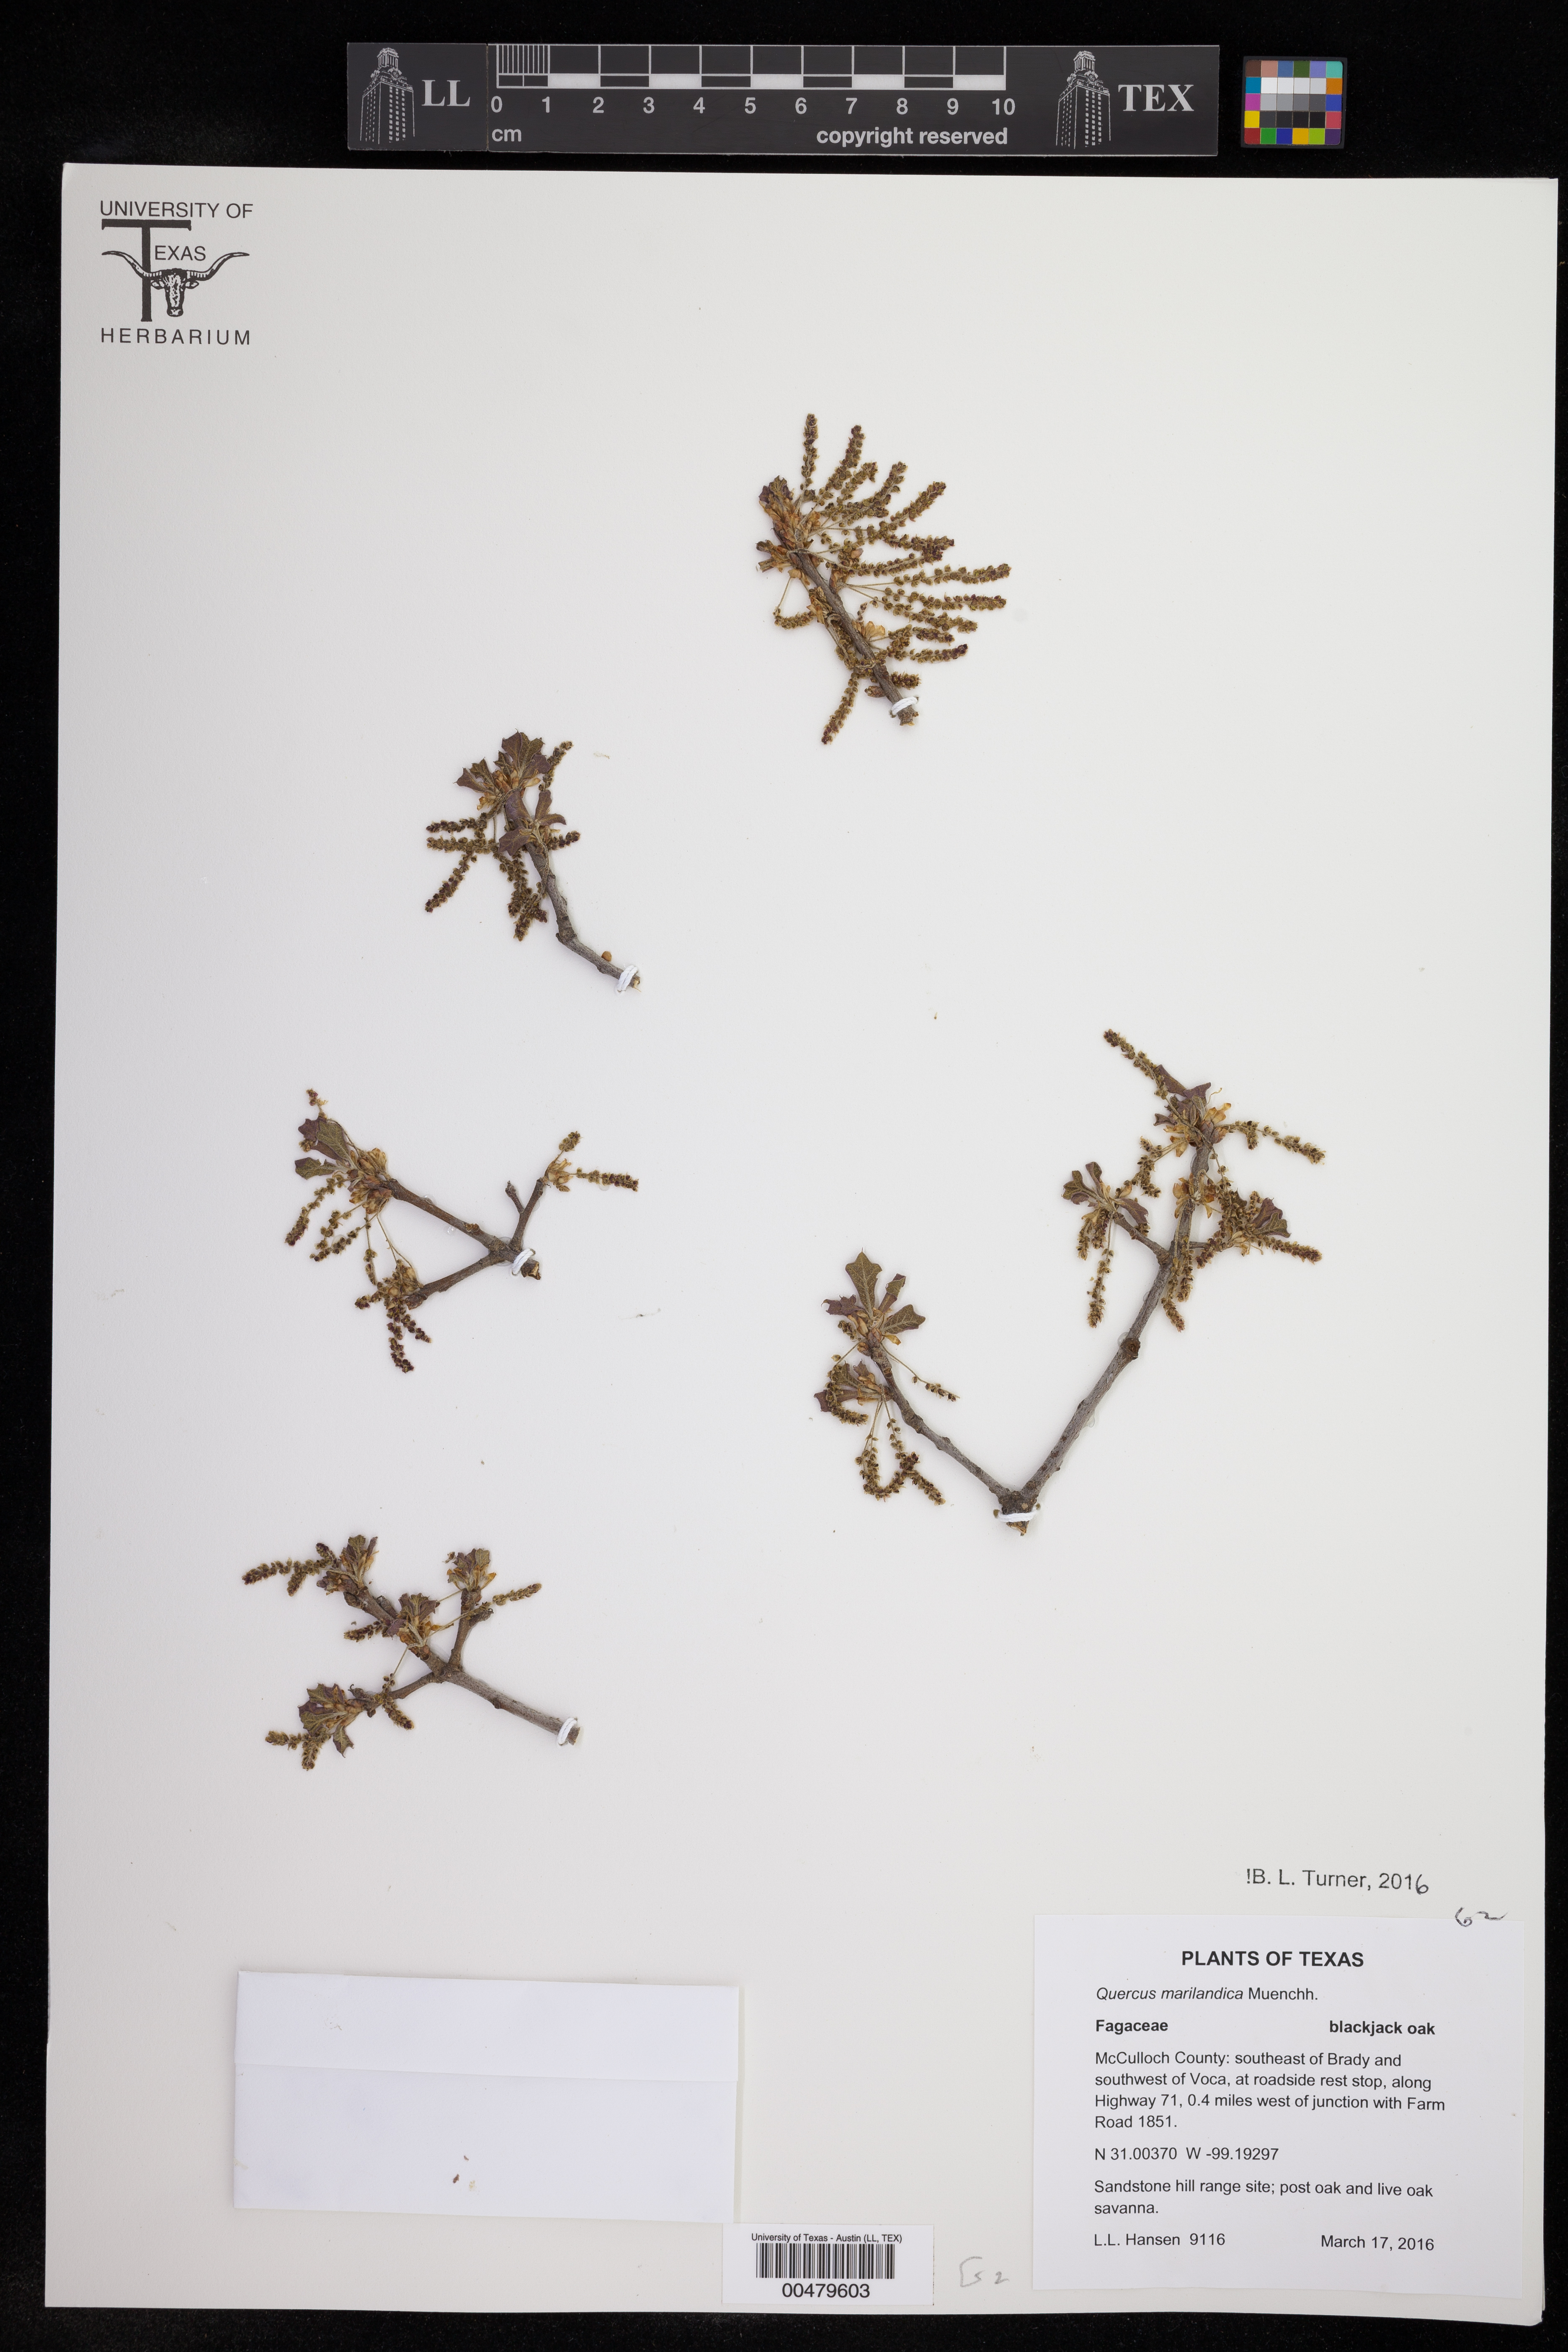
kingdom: Plantae
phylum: Tracheophyta
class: Magnoliopsida
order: Fagales
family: Fagaceae
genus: Quercus
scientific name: Quercus marilandica
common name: Blackjack oak
